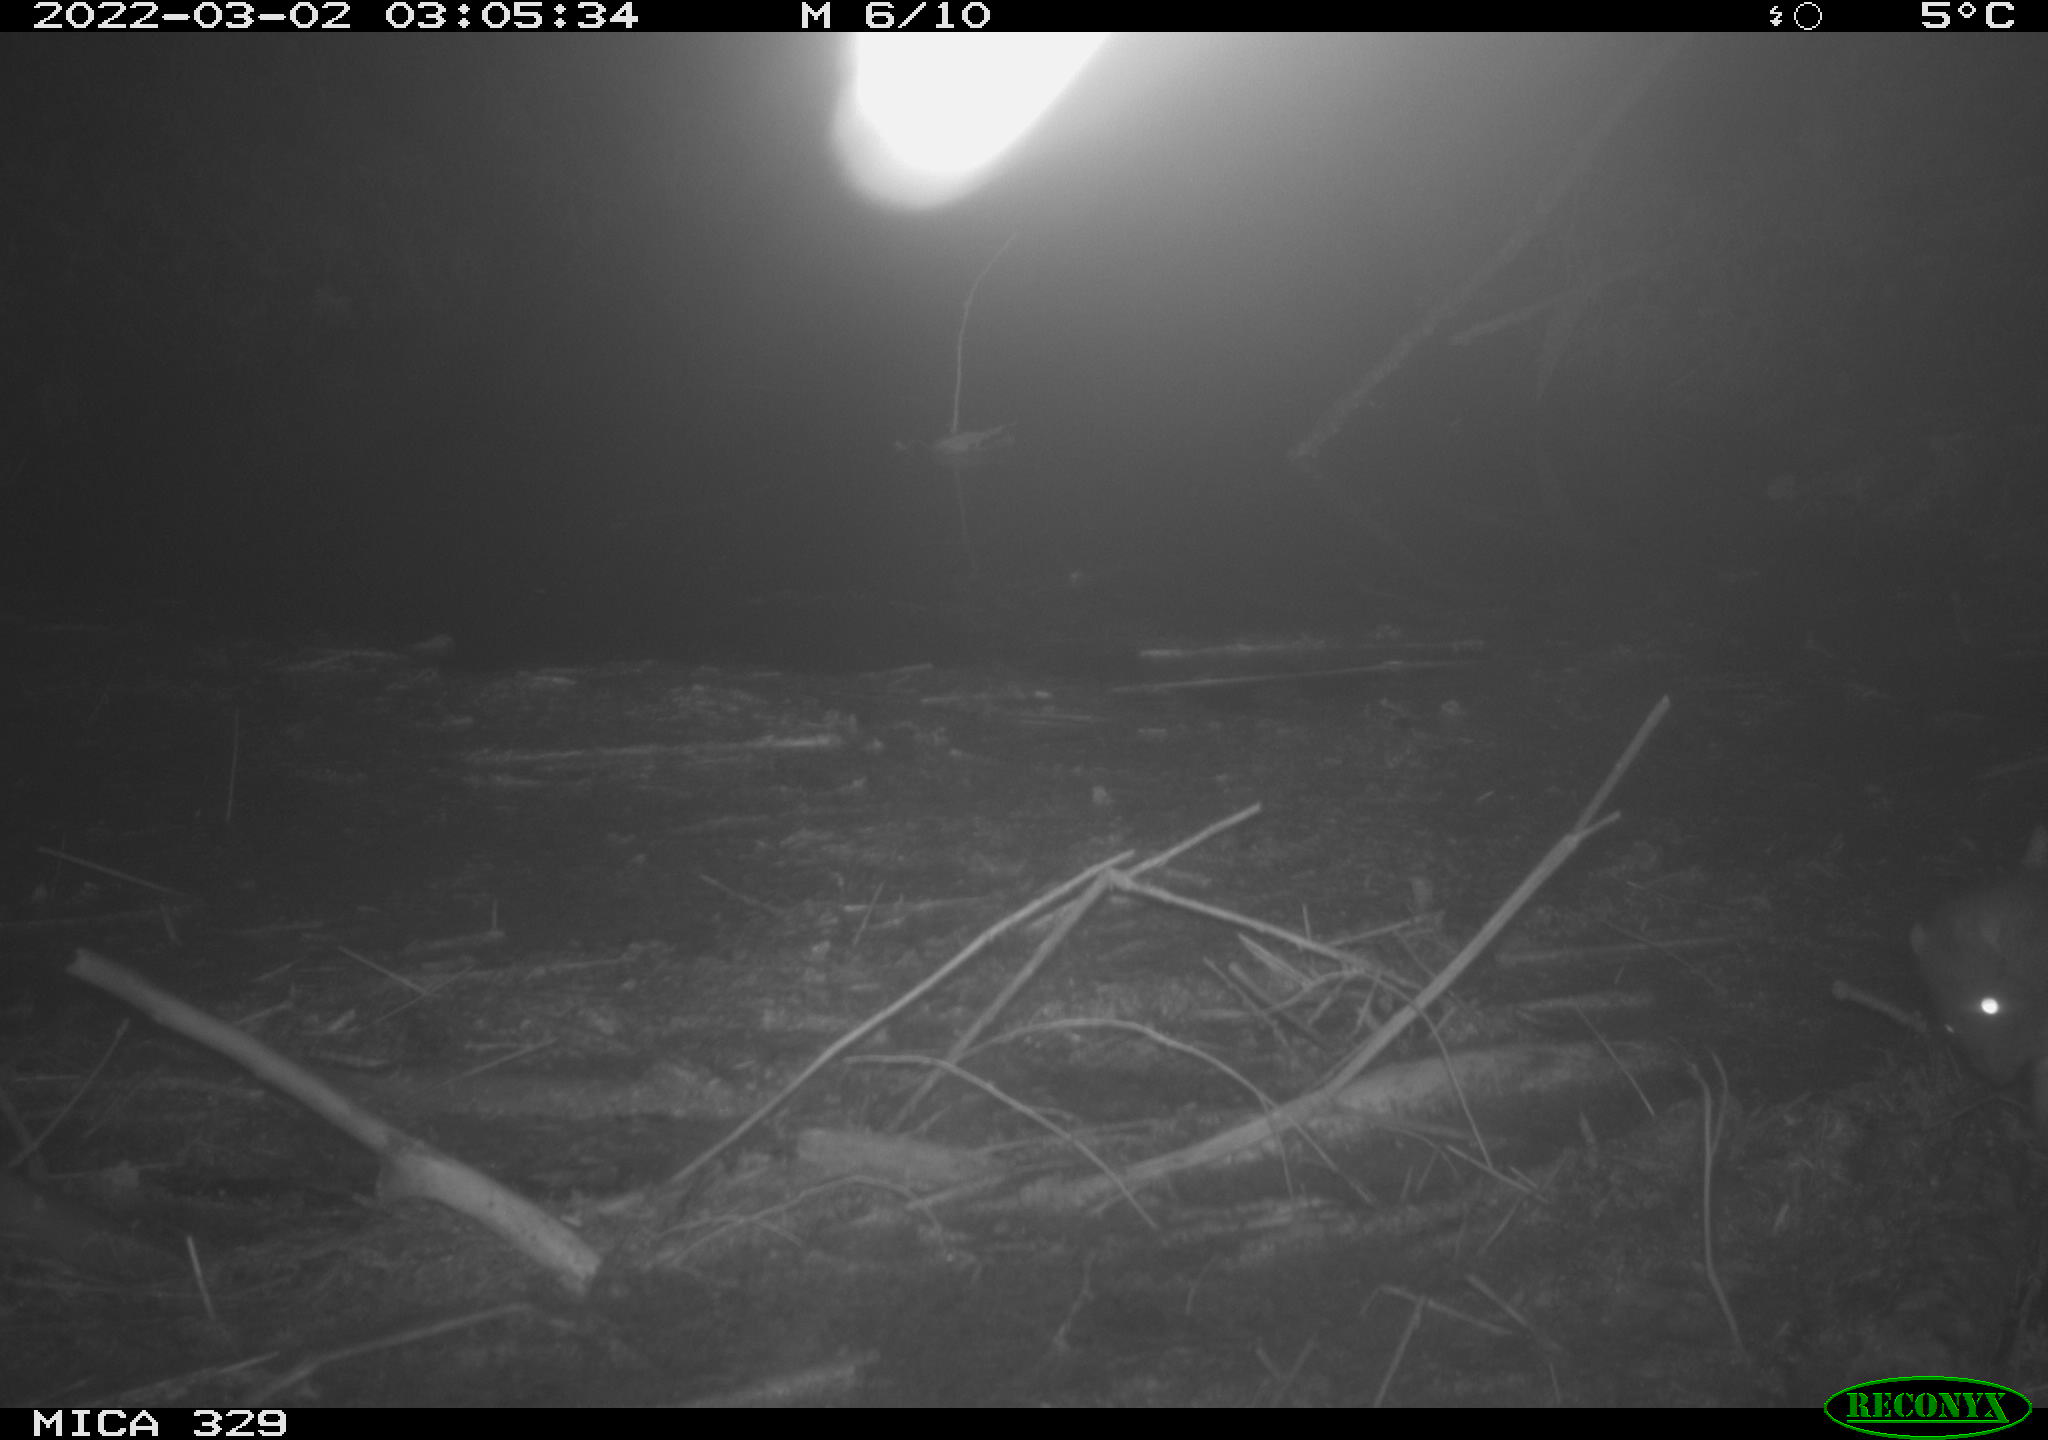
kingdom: Animalia
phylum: Chordata
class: Mammalia
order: Rodentia
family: Muridae
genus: Rattus
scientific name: Rattus norvegicus
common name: Brown rat
